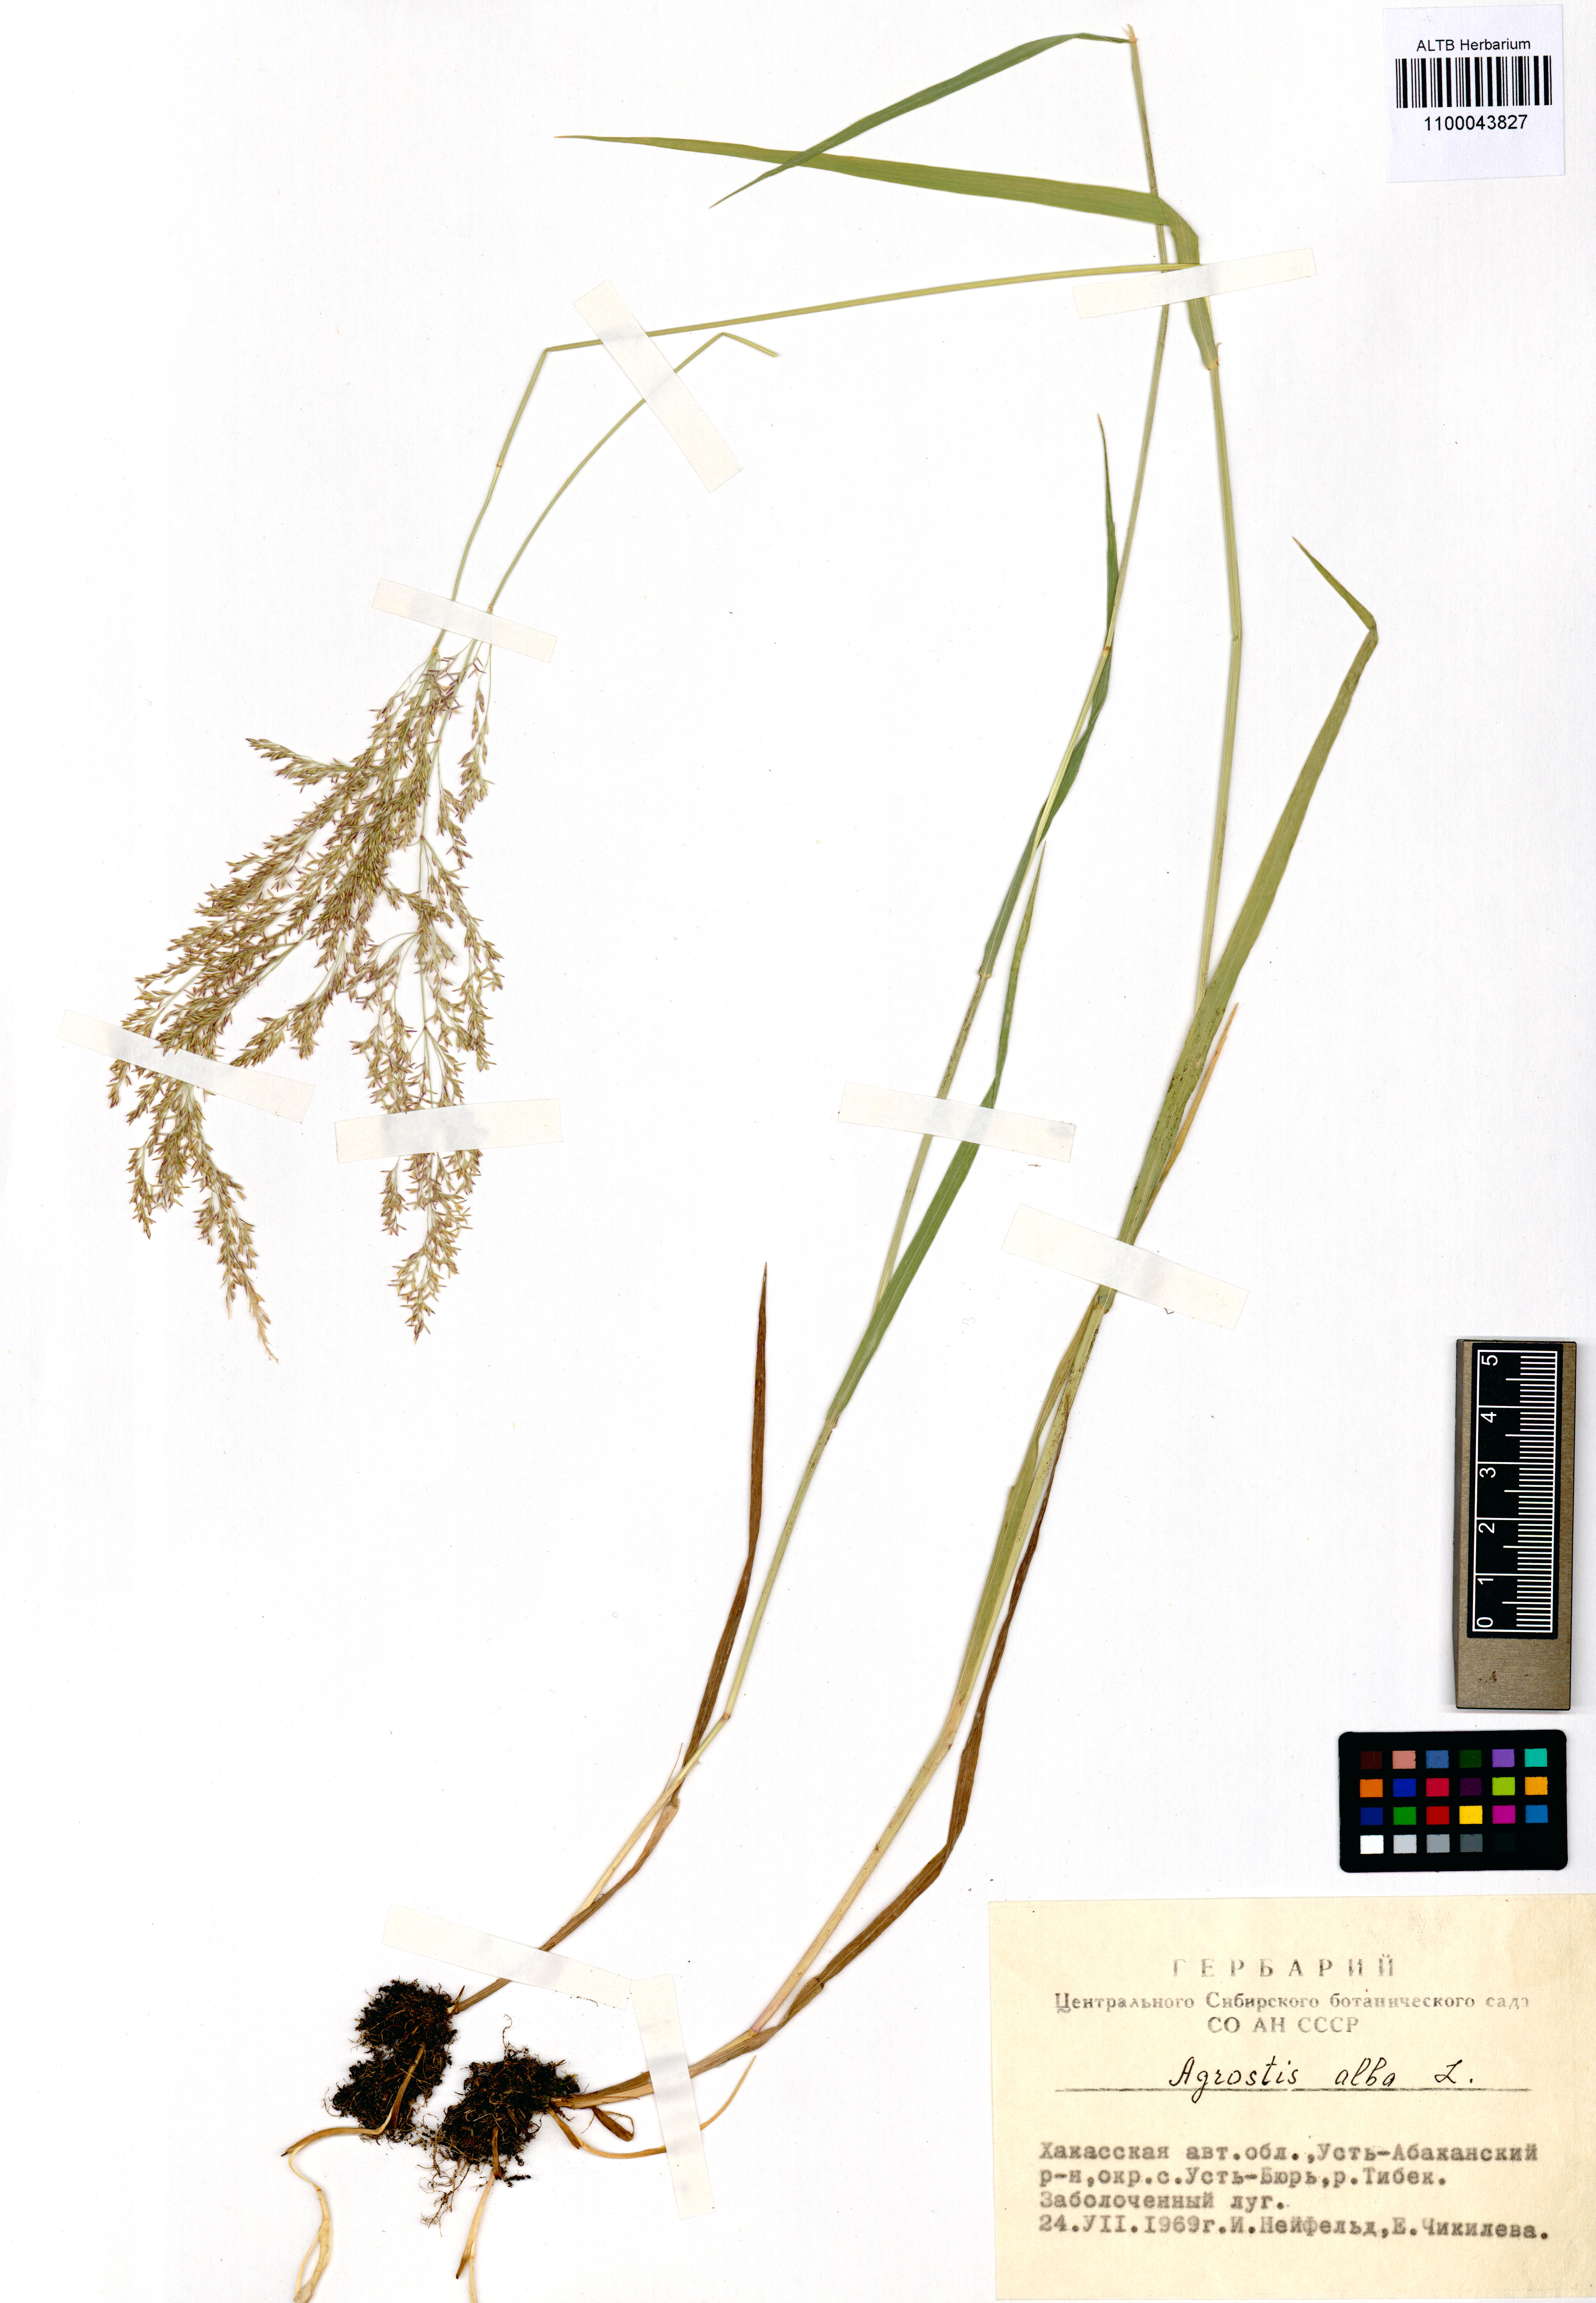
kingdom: Plantae
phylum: Tracheophyta
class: Liliopsida
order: Poales
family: Poaceae
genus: Agrostis
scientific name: Agrostis gigantea
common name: Black bent
